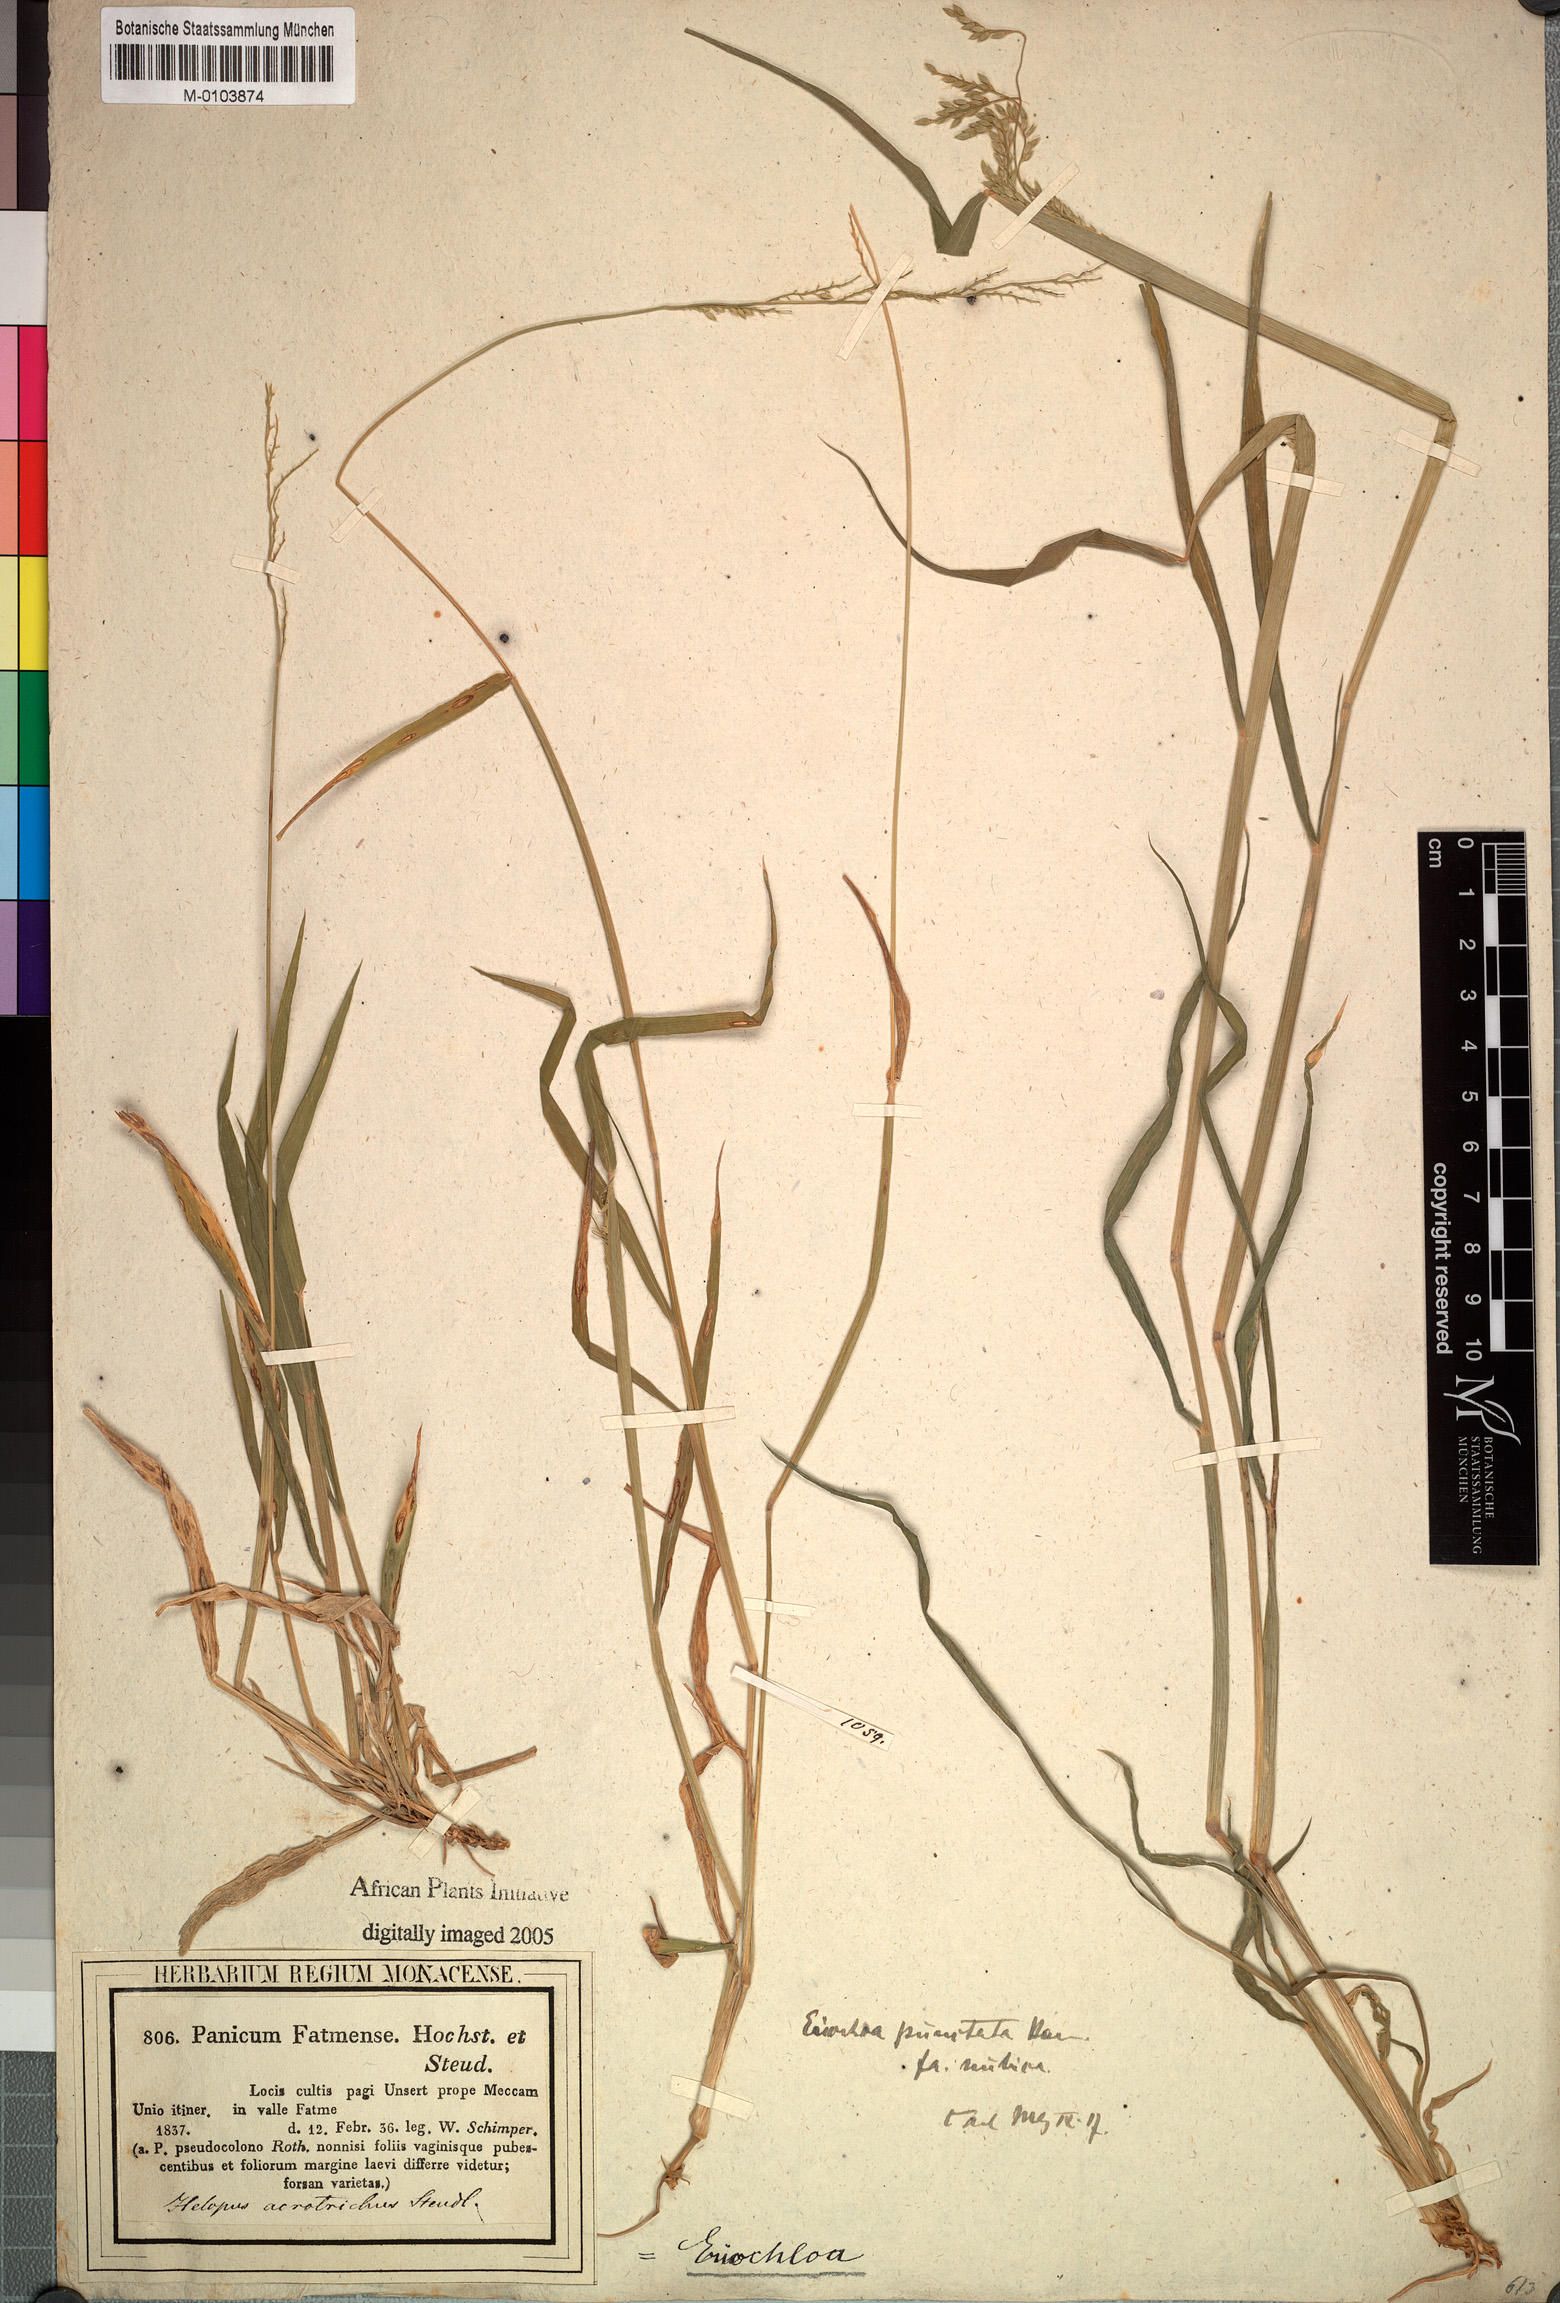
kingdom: Plantae
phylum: Tracheophyta
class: Liliopsida
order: Poales
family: Poaceae
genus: Eriochloa
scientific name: Eriochloa barbatus
